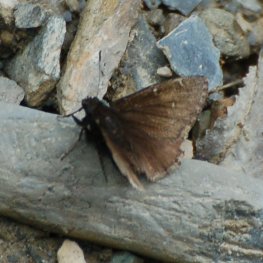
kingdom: Animalia
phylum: Arthropoda
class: Insecta
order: Lepidoptera
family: Hesperiidae
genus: Autochton
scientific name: Autochton
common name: Northern Cloudywing
